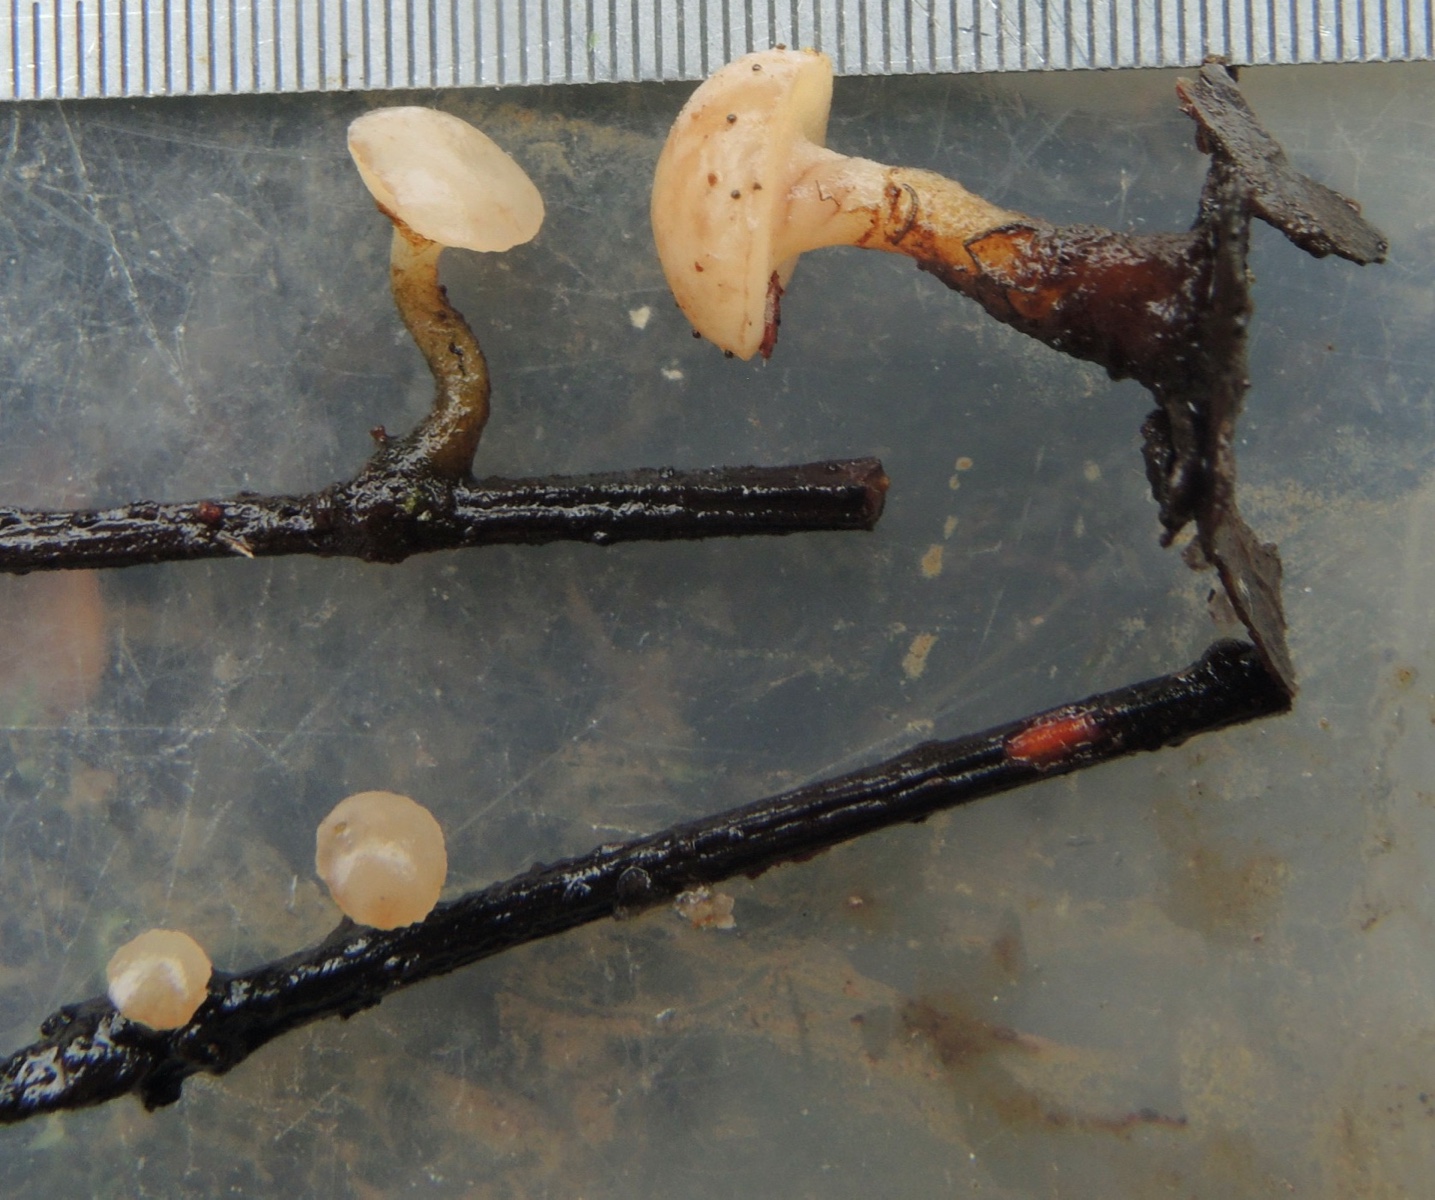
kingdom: Fungi
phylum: Ascomycota
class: Leotiomycetes
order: Helotiales
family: Tricladiaceae
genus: Cudoniella
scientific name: Cudoniella clavus
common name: stor dyndskive
